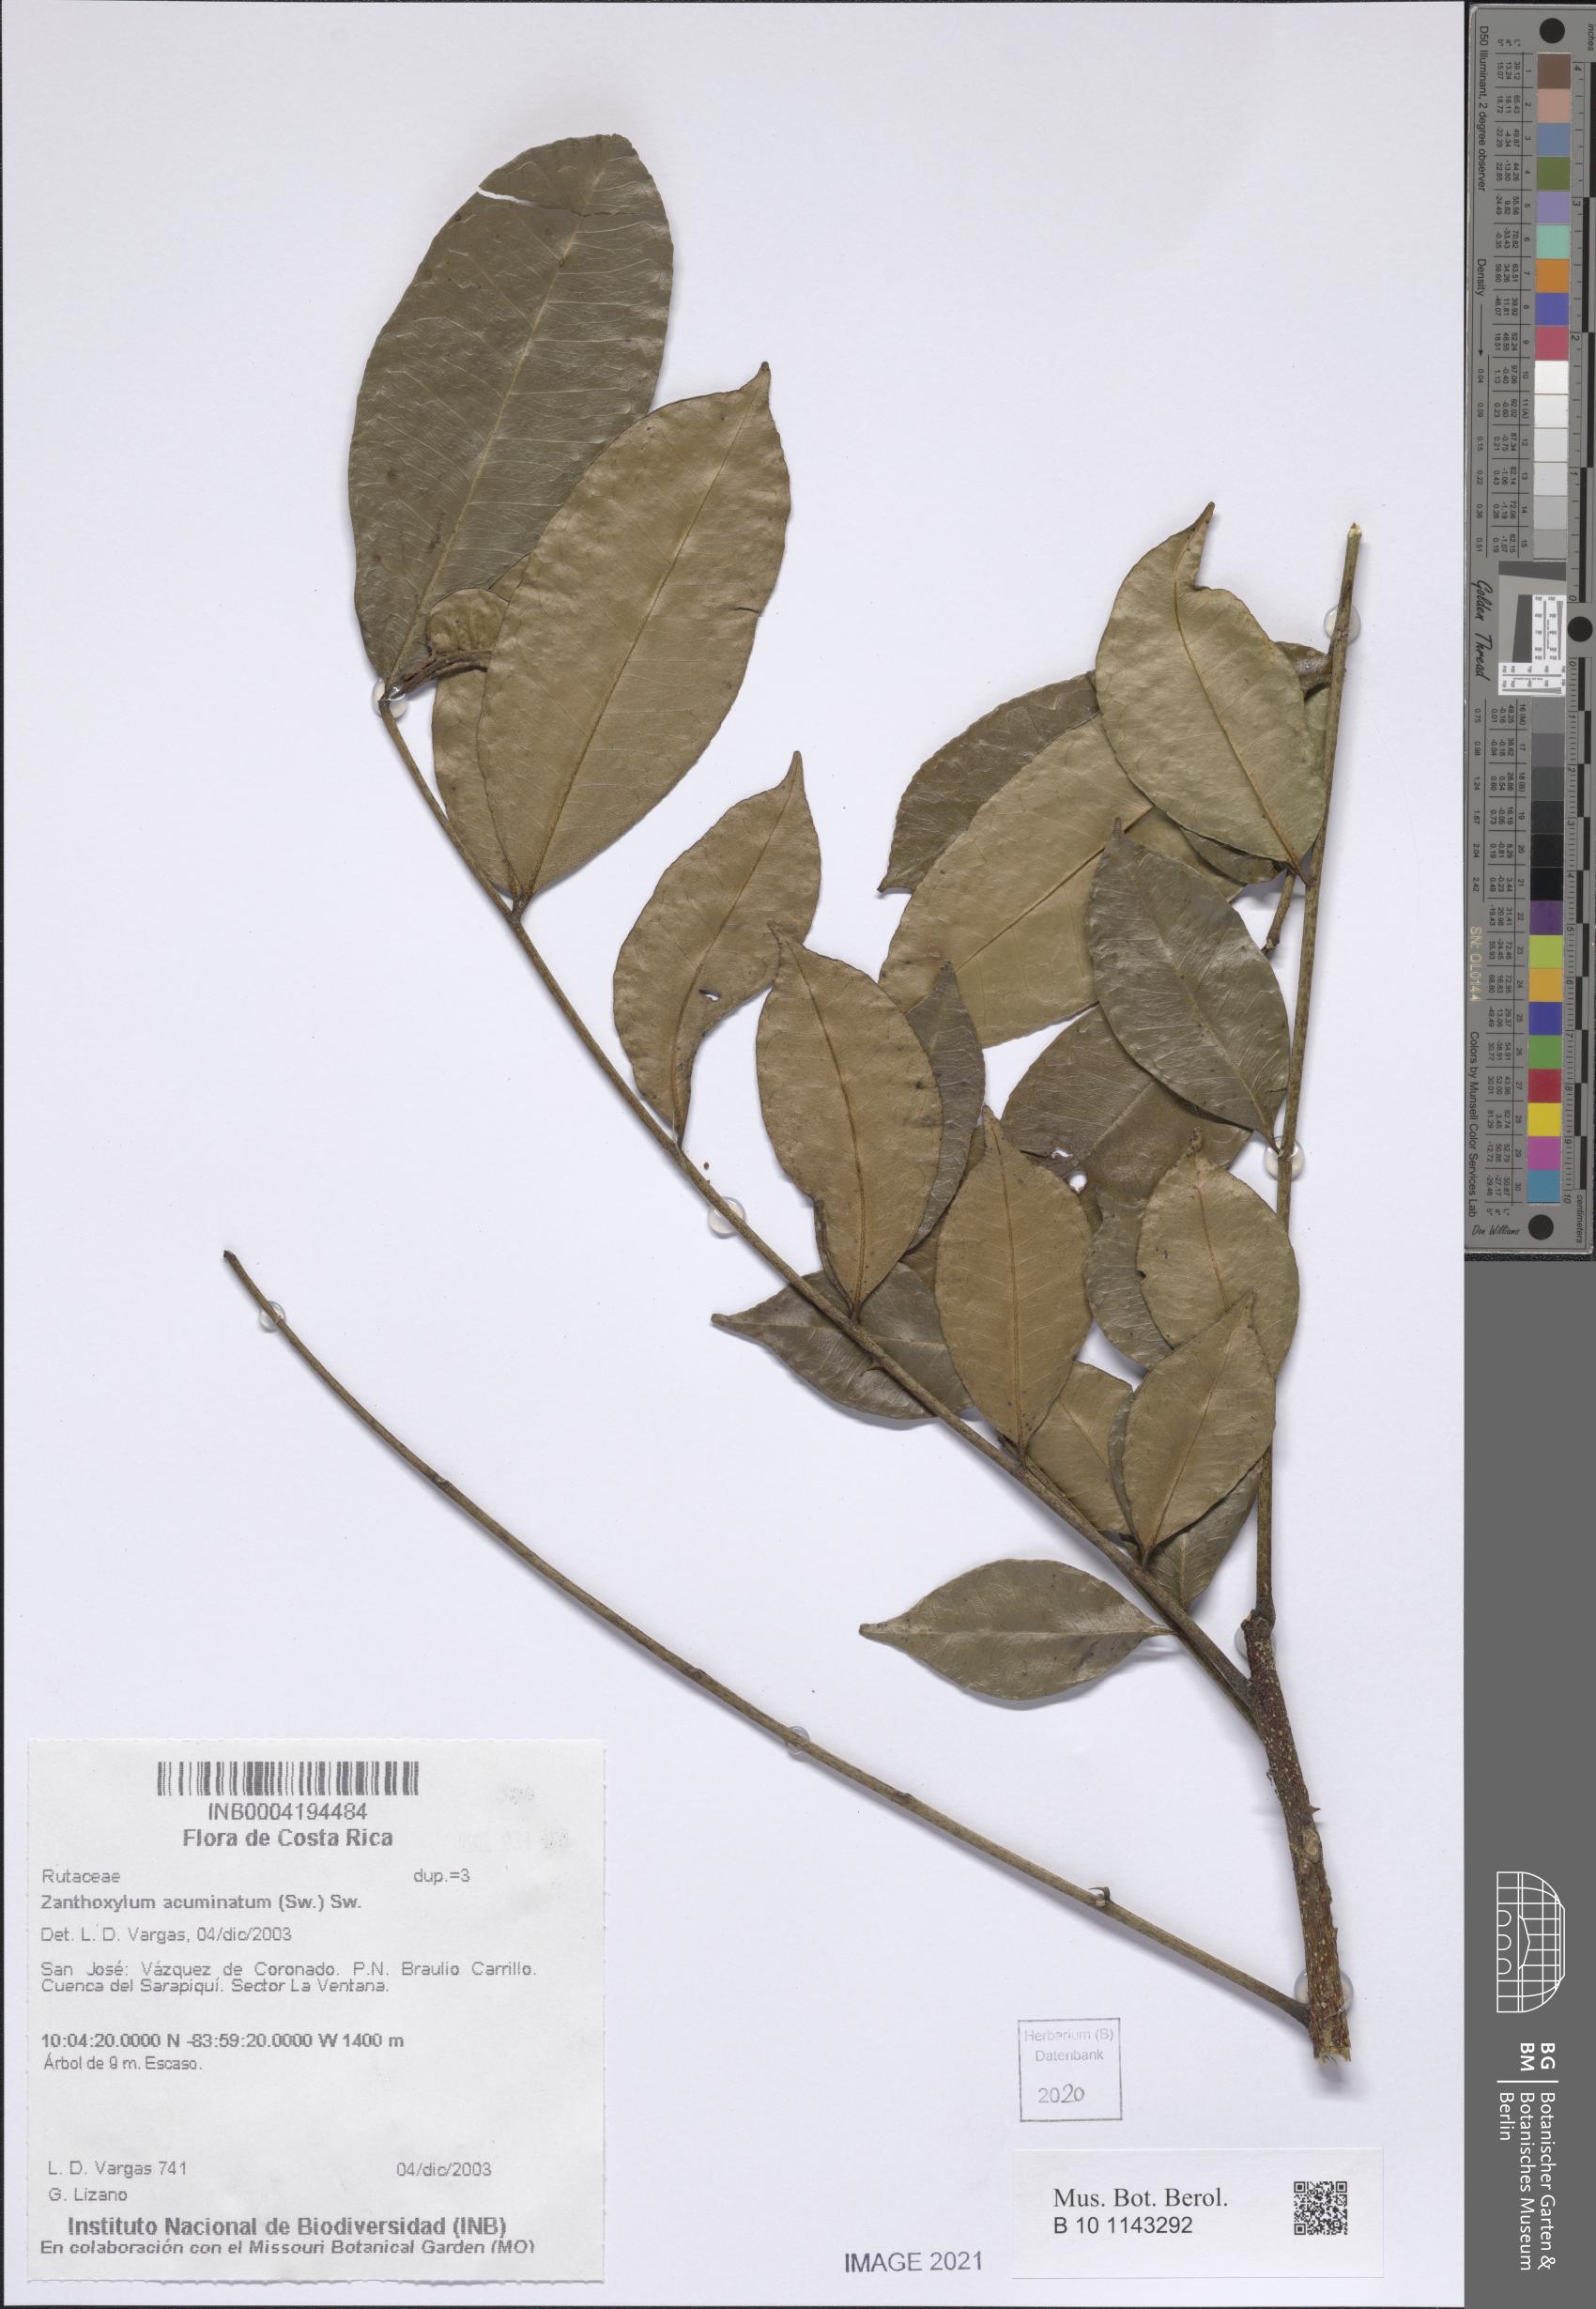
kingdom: Plantae
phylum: Tracheophyta
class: Magnoliopsida
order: Sapindales
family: Rutaceae
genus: Zanthoxylum
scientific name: Zanthoxylum acuminatum
